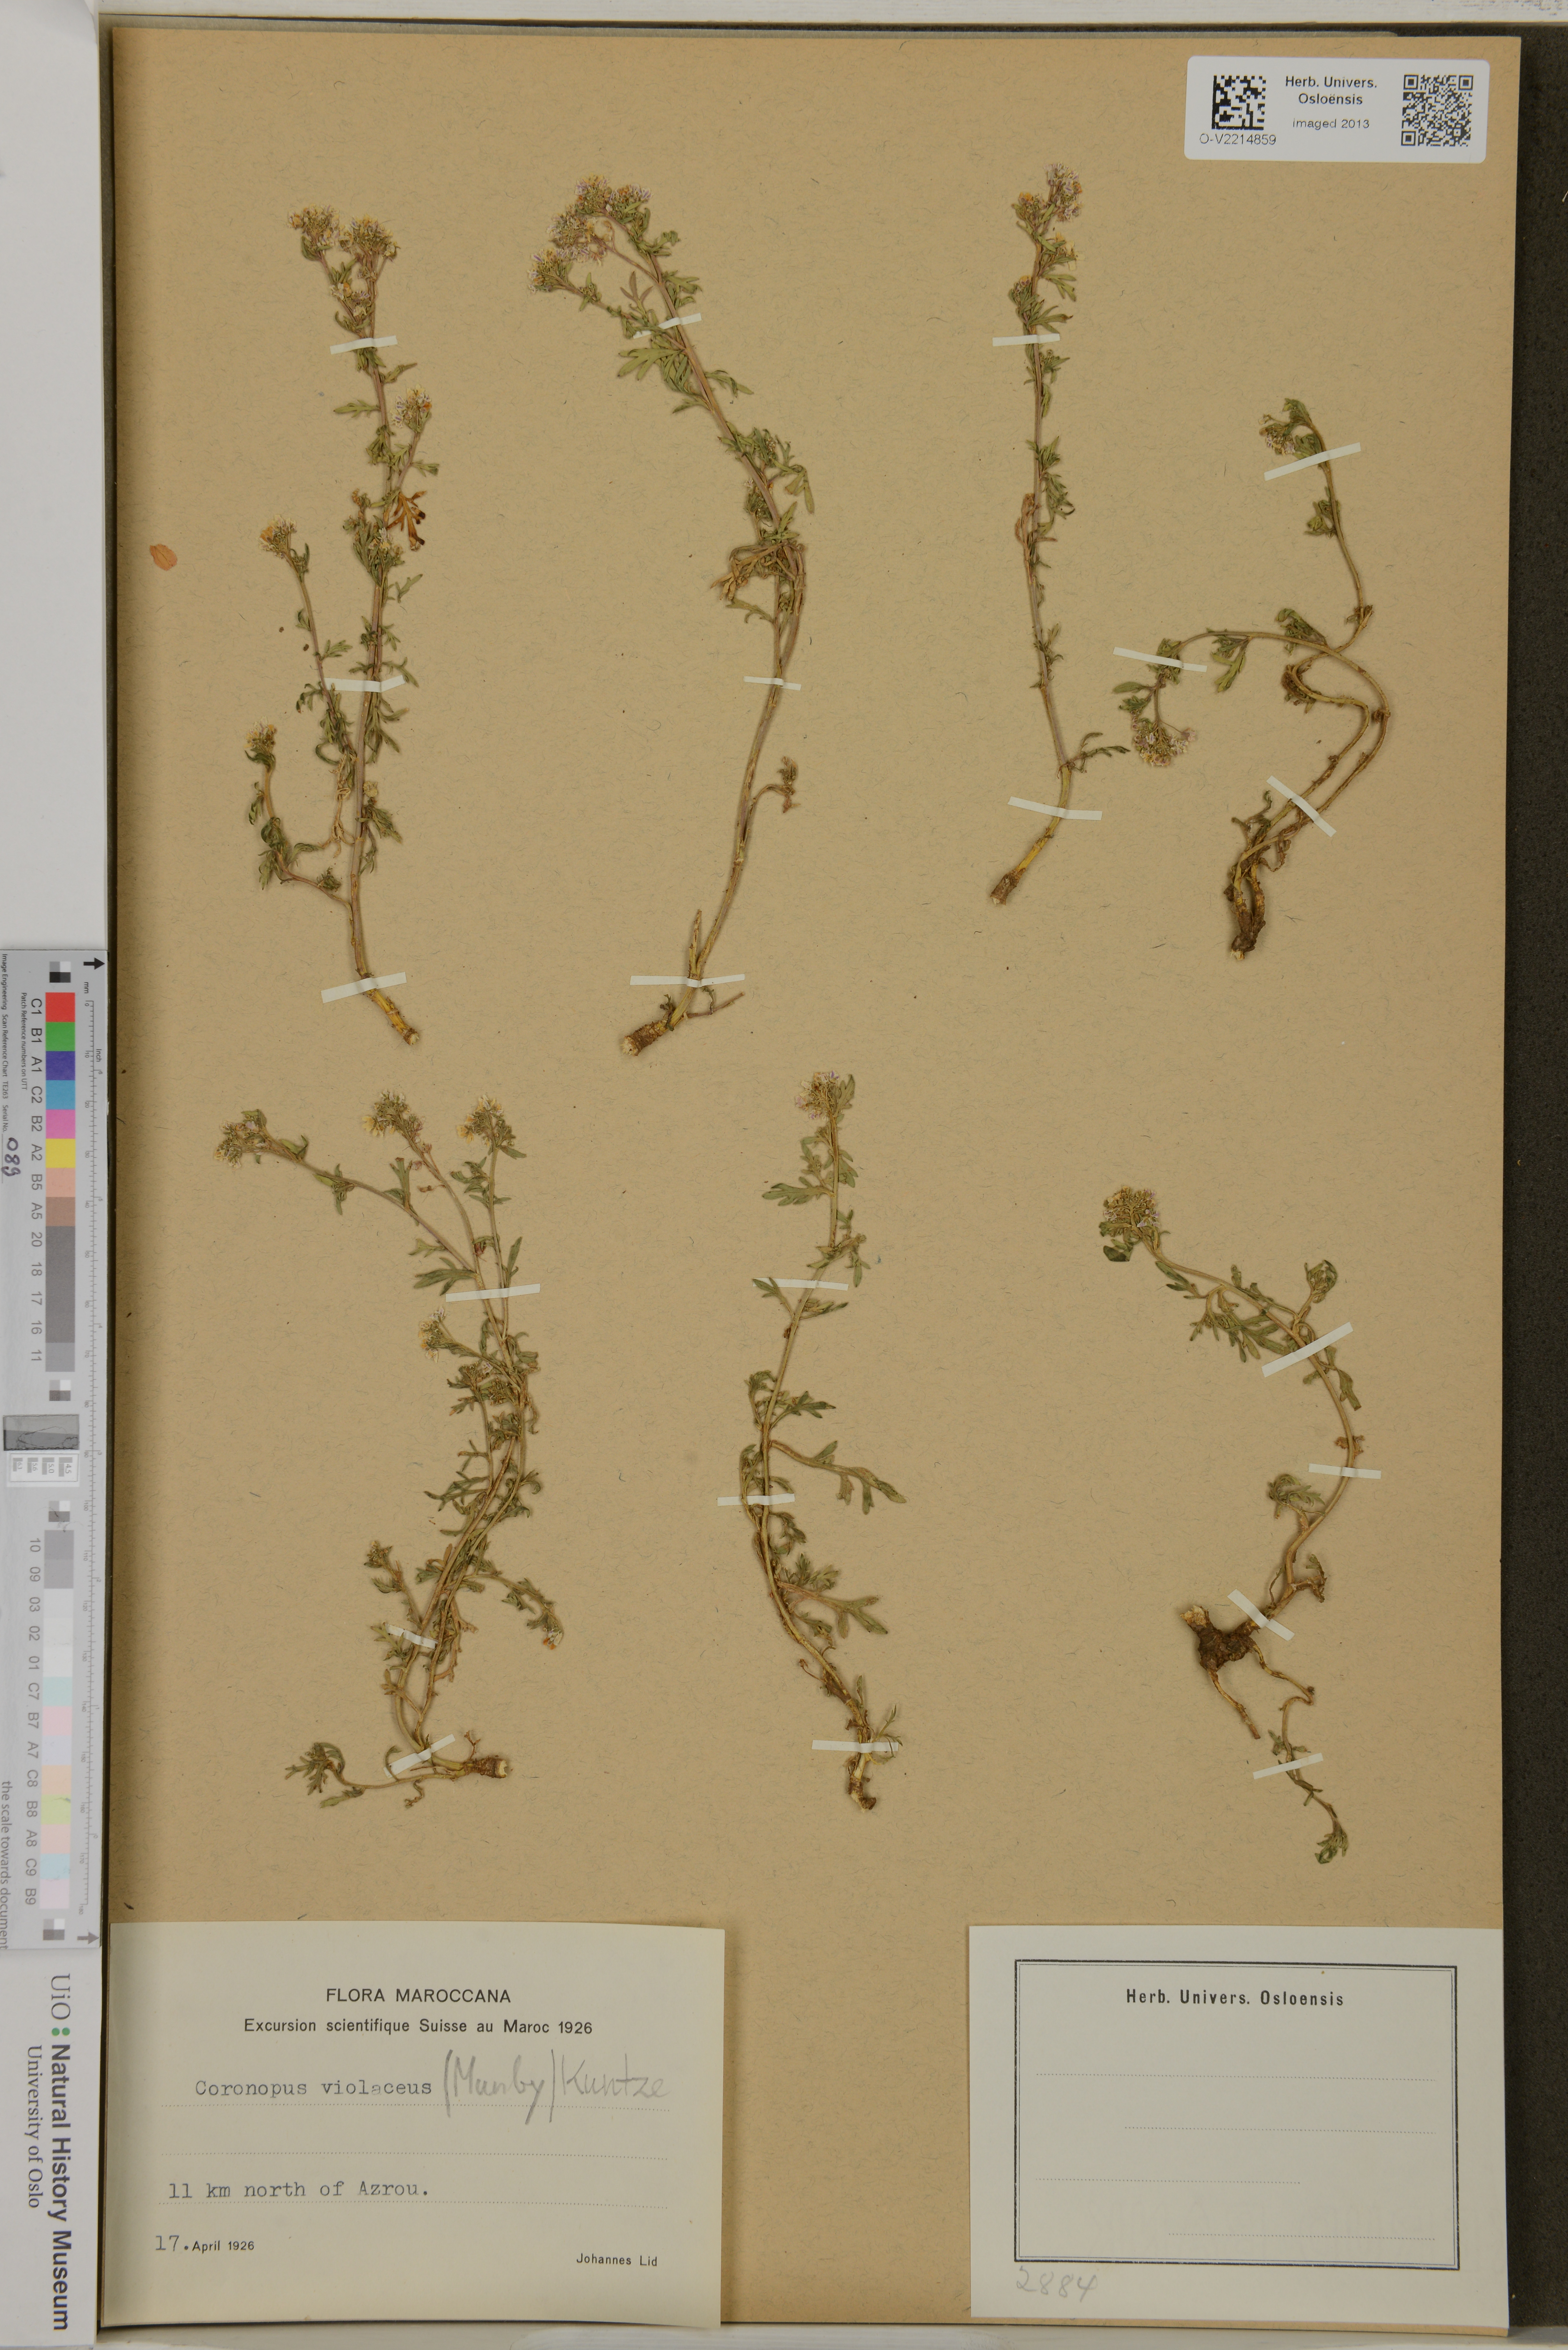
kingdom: Plantae
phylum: Tracheophyta
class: Magnoliopsida
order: Brassicales
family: Brassicaceae
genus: Lepidium
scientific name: Lepidium violaceum
